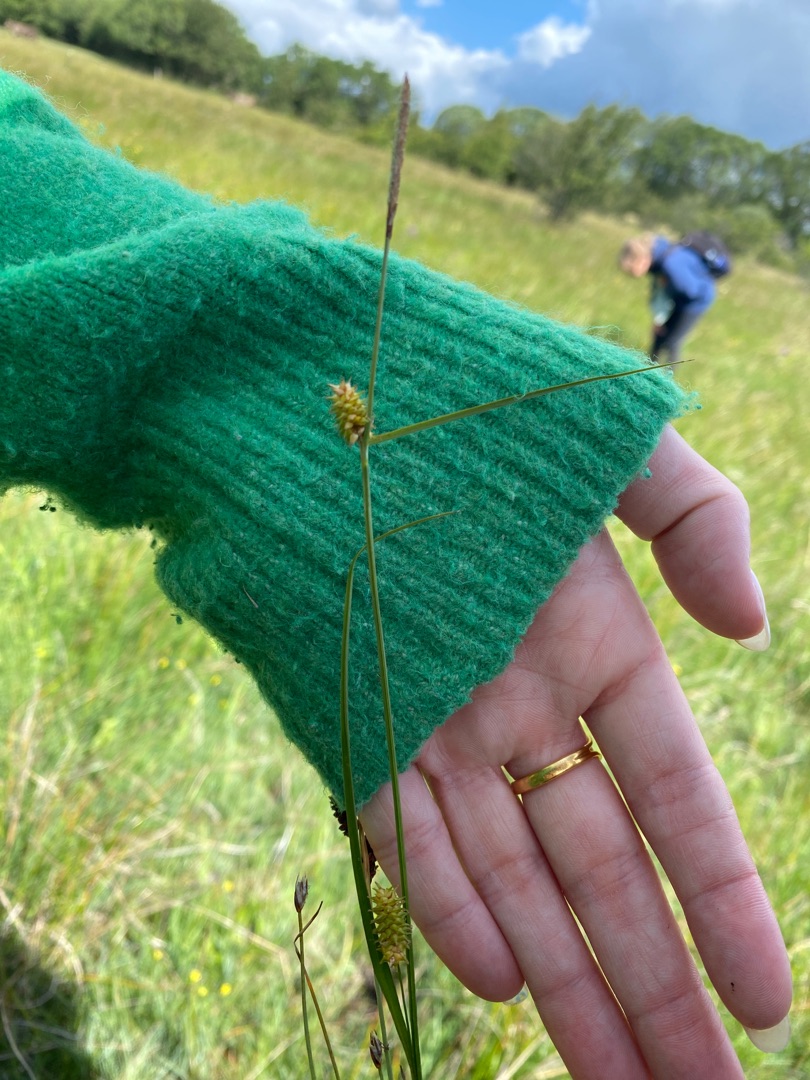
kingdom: Plantae
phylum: Tracheophyta
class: Liliopsida
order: Poales
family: Cyperaceae
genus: Carex
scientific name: Carex hostiana
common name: Skede-star
